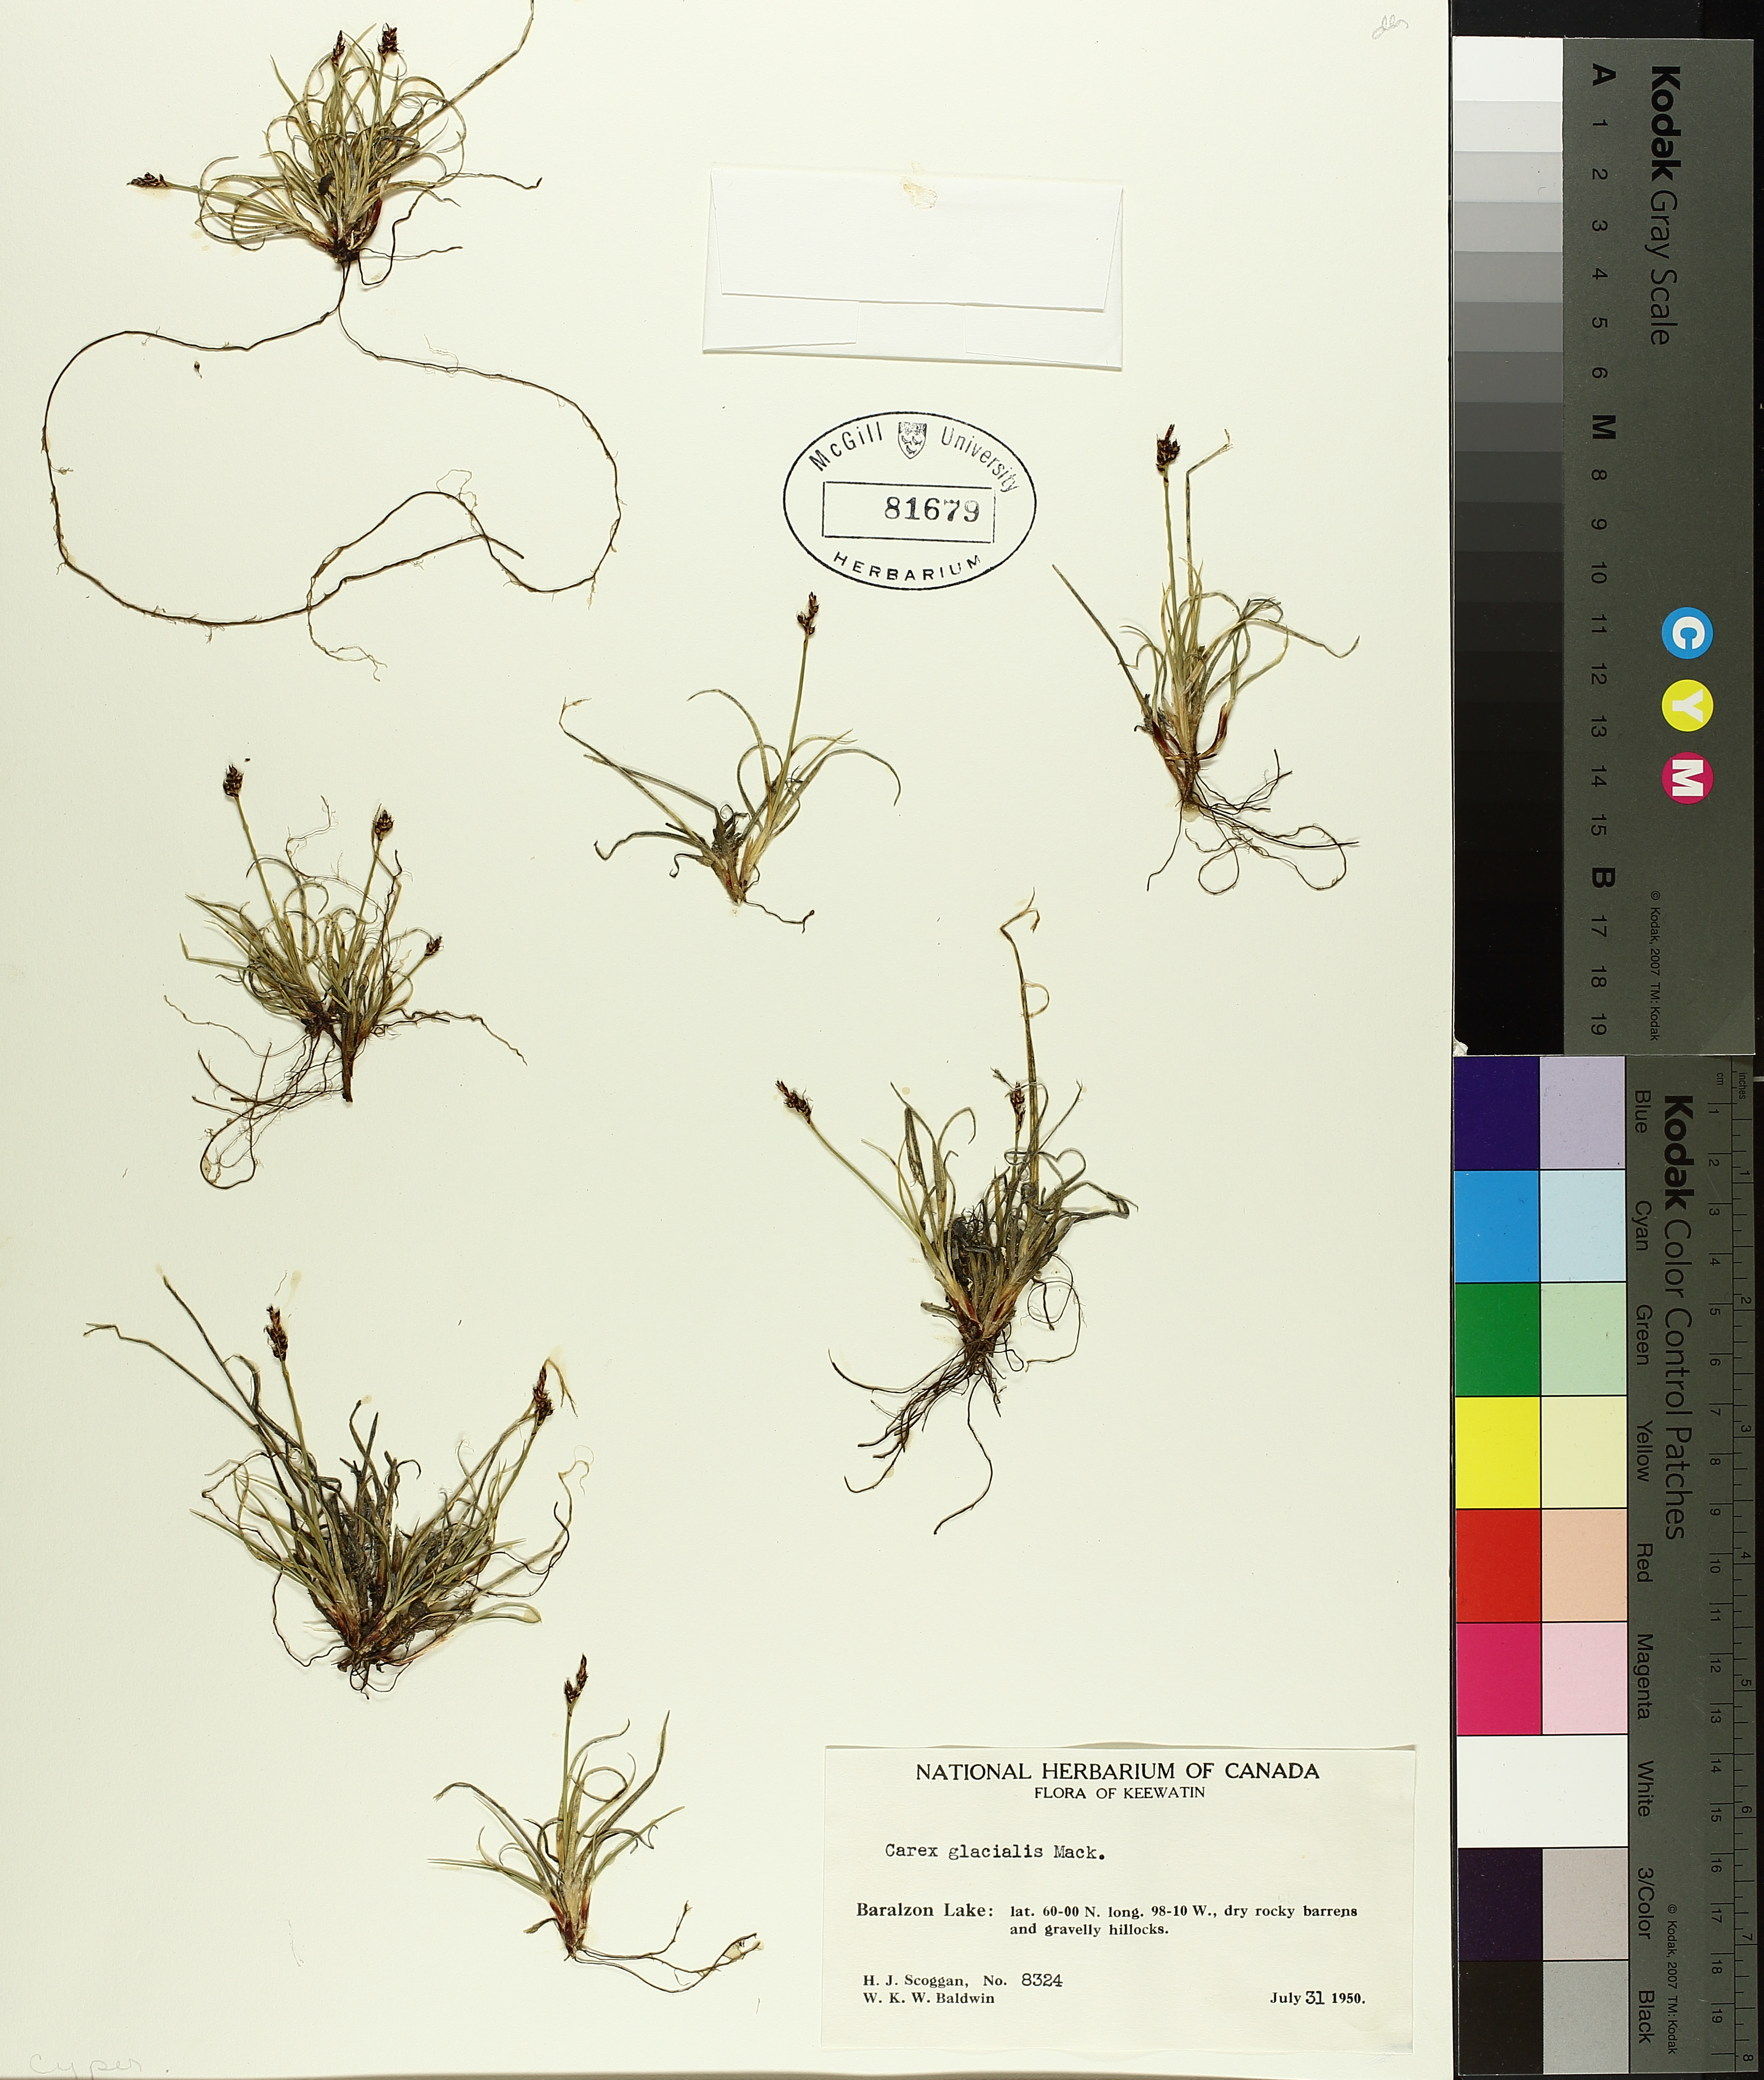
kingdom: Plantae
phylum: Tracheophyta
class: Liliopsida
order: Poales
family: Cyperaceae
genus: Carex
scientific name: Carex glacialis
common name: Newfoundland sedge
